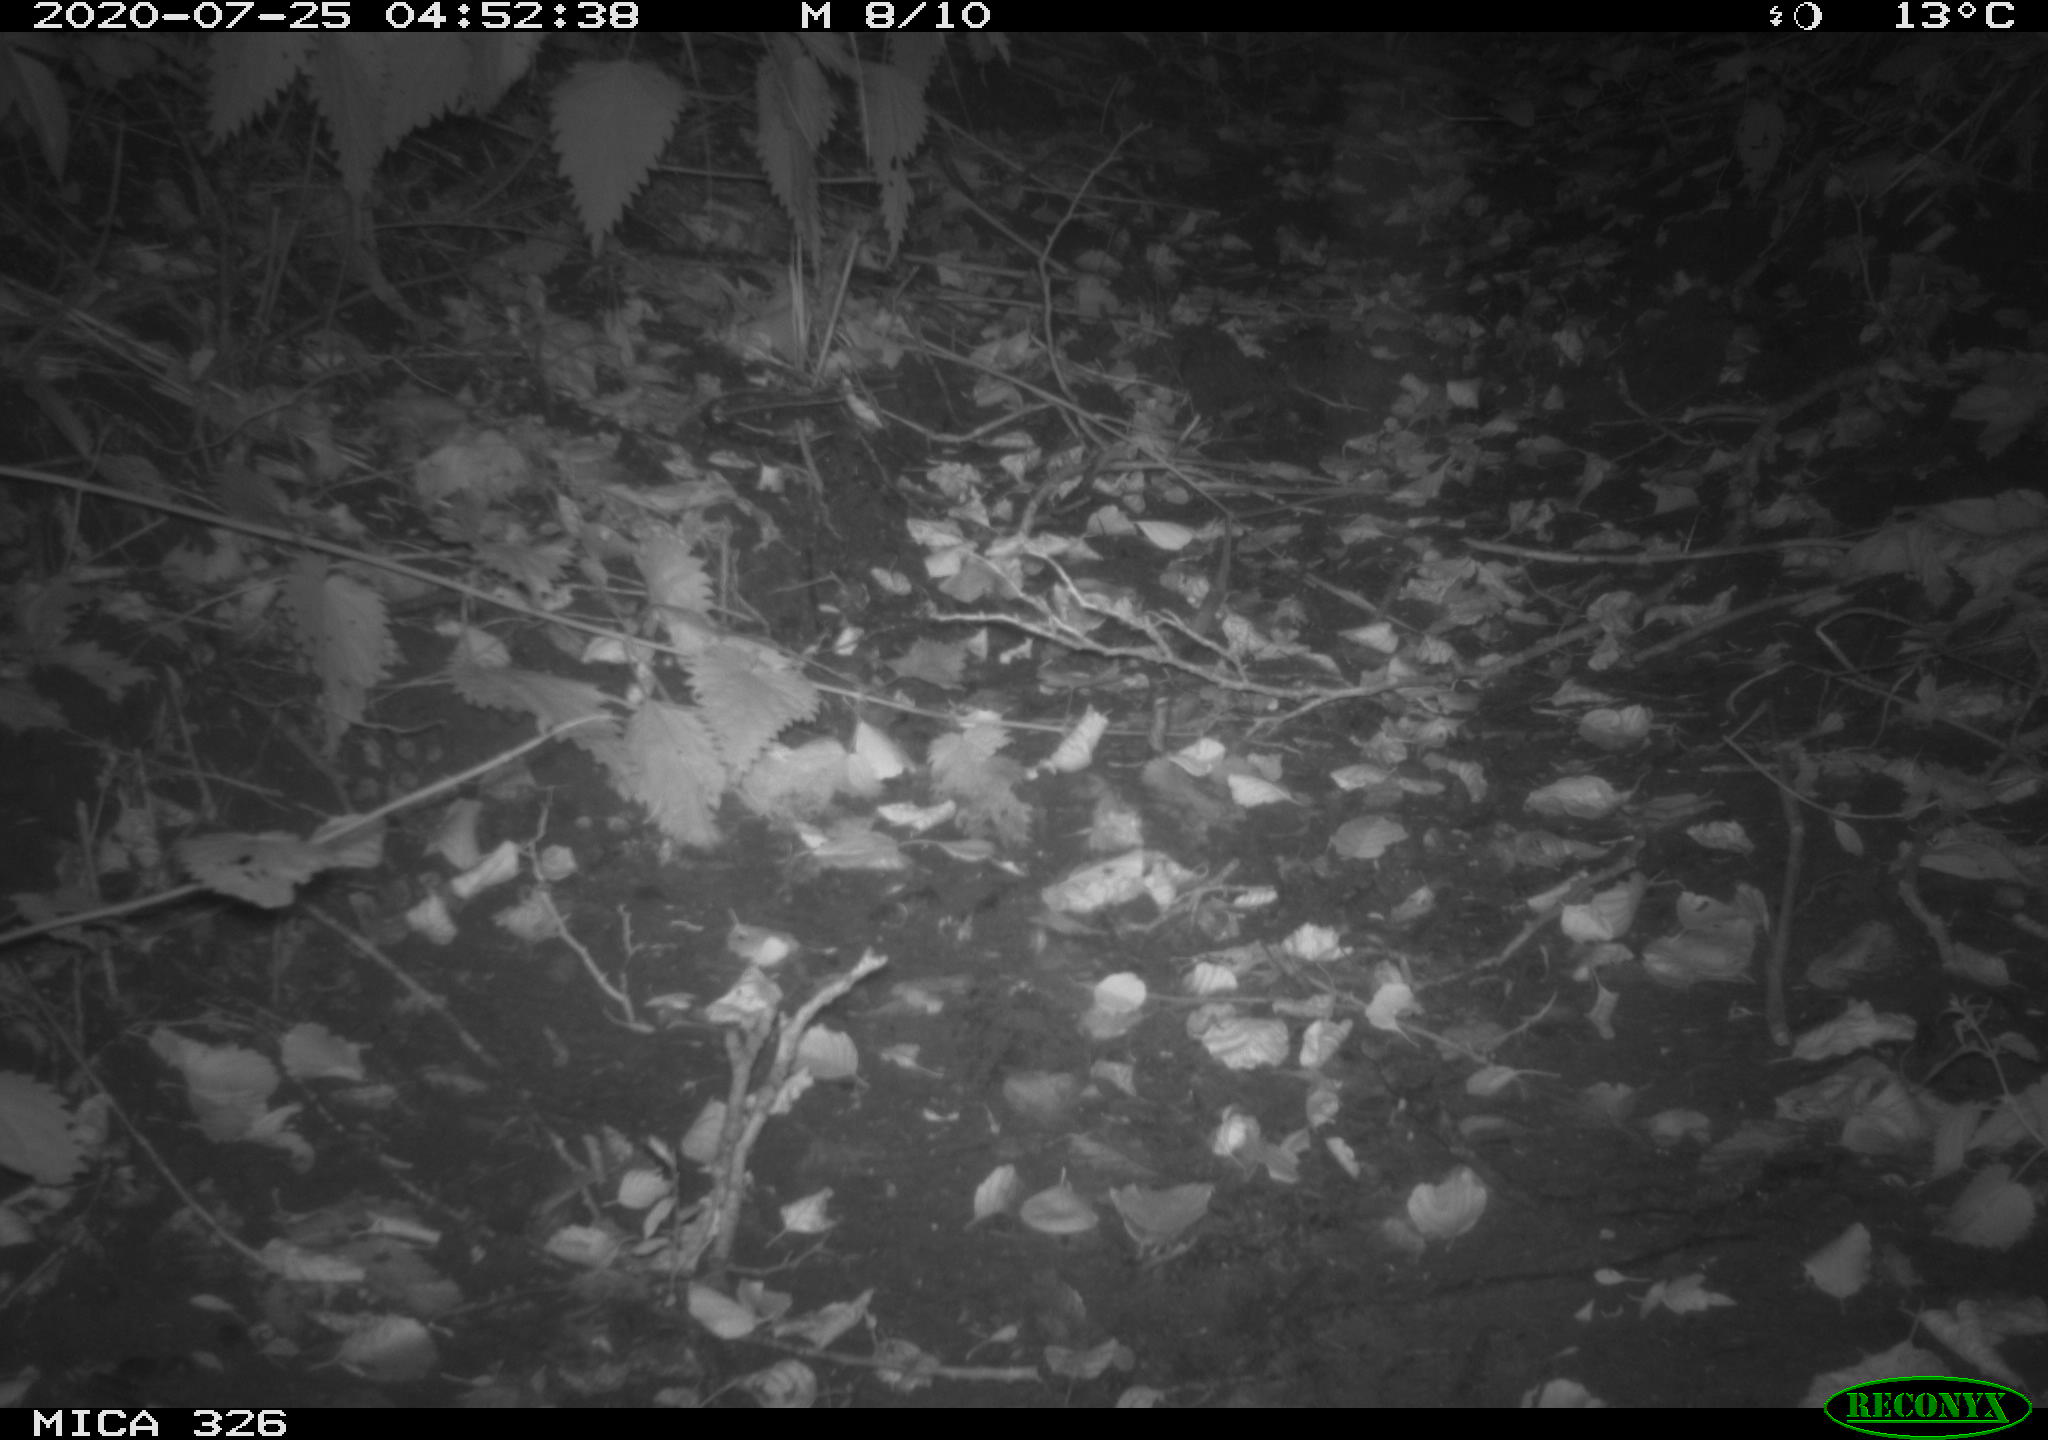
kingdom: Animalia
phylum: Chordata
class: Mammalia
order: Rodentia
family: Muridae
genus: Rattus
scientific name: Rattus norvegicus
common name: Brown rat
